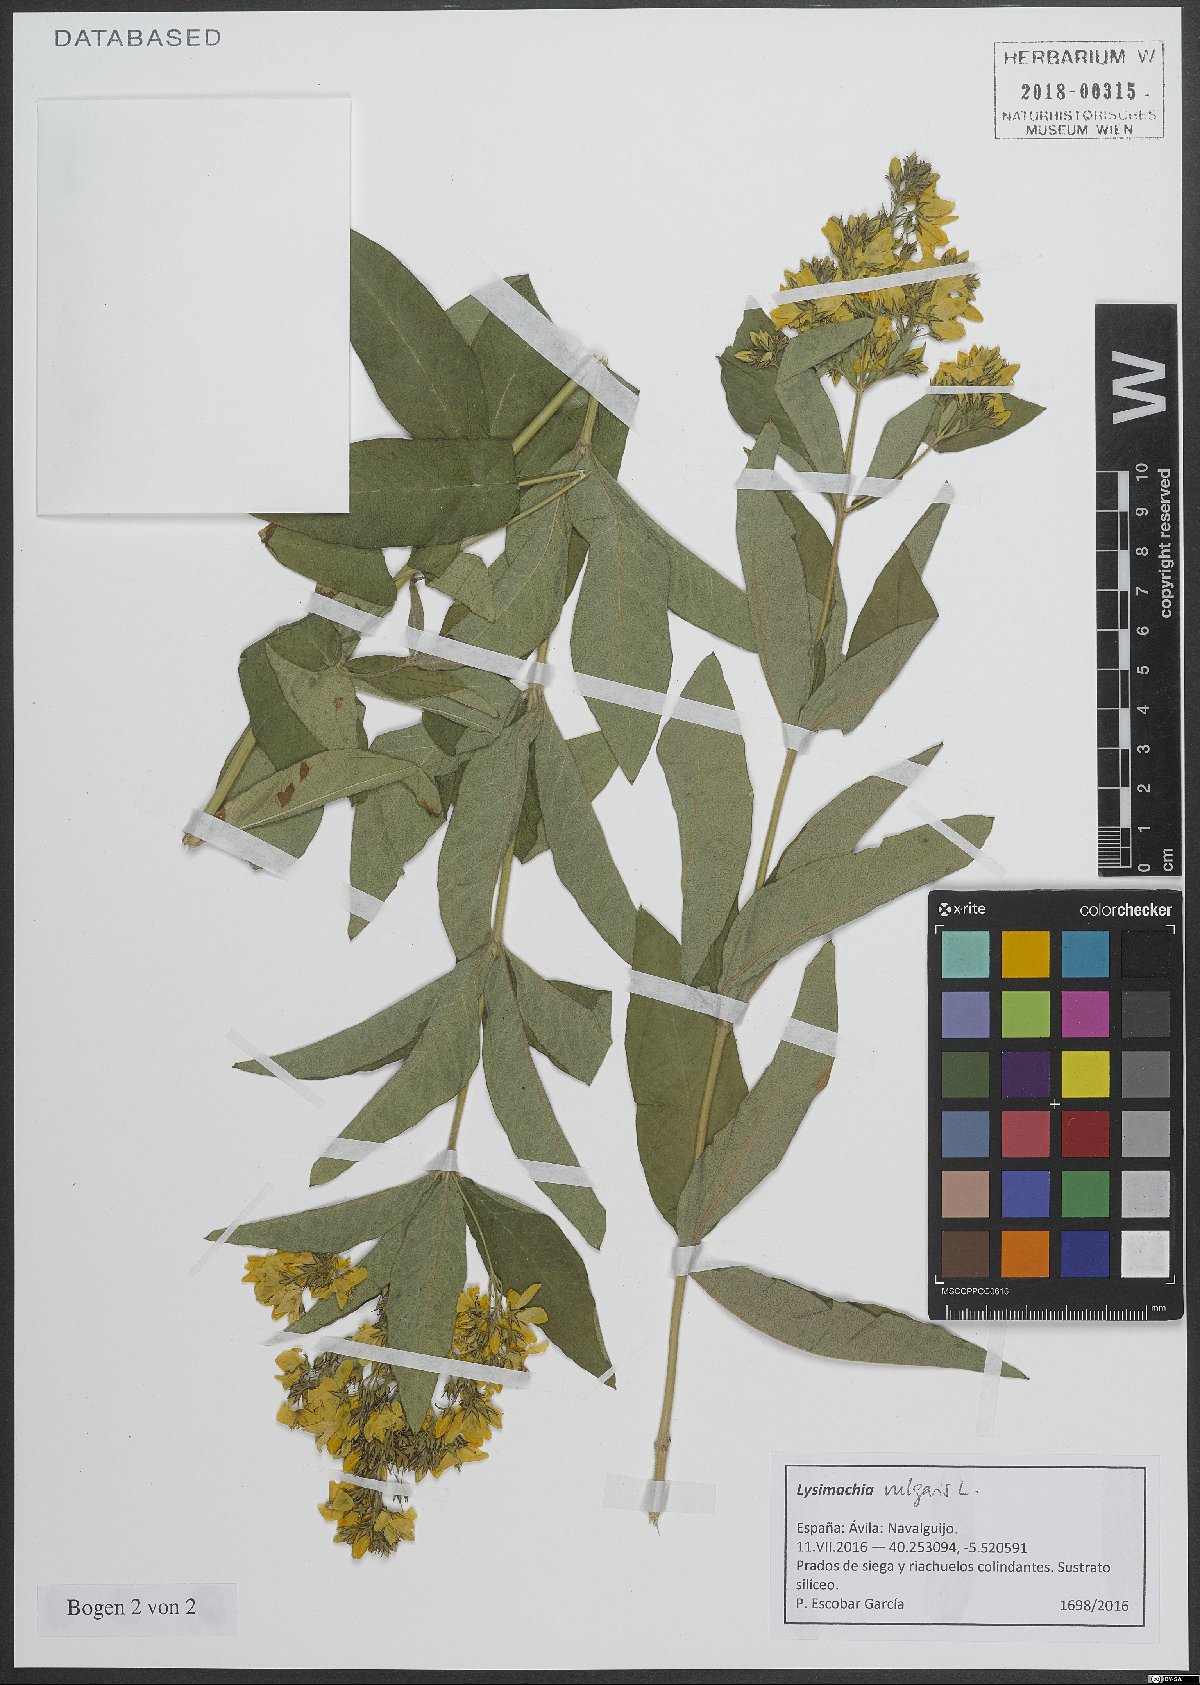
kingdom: Plantae
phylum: Tracheophyta
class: Magnoliopsida
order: Ericales
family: Primulaceae
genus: Lysimachia
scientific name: Lysimachia vulgaris
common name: Yellow loosestrife
